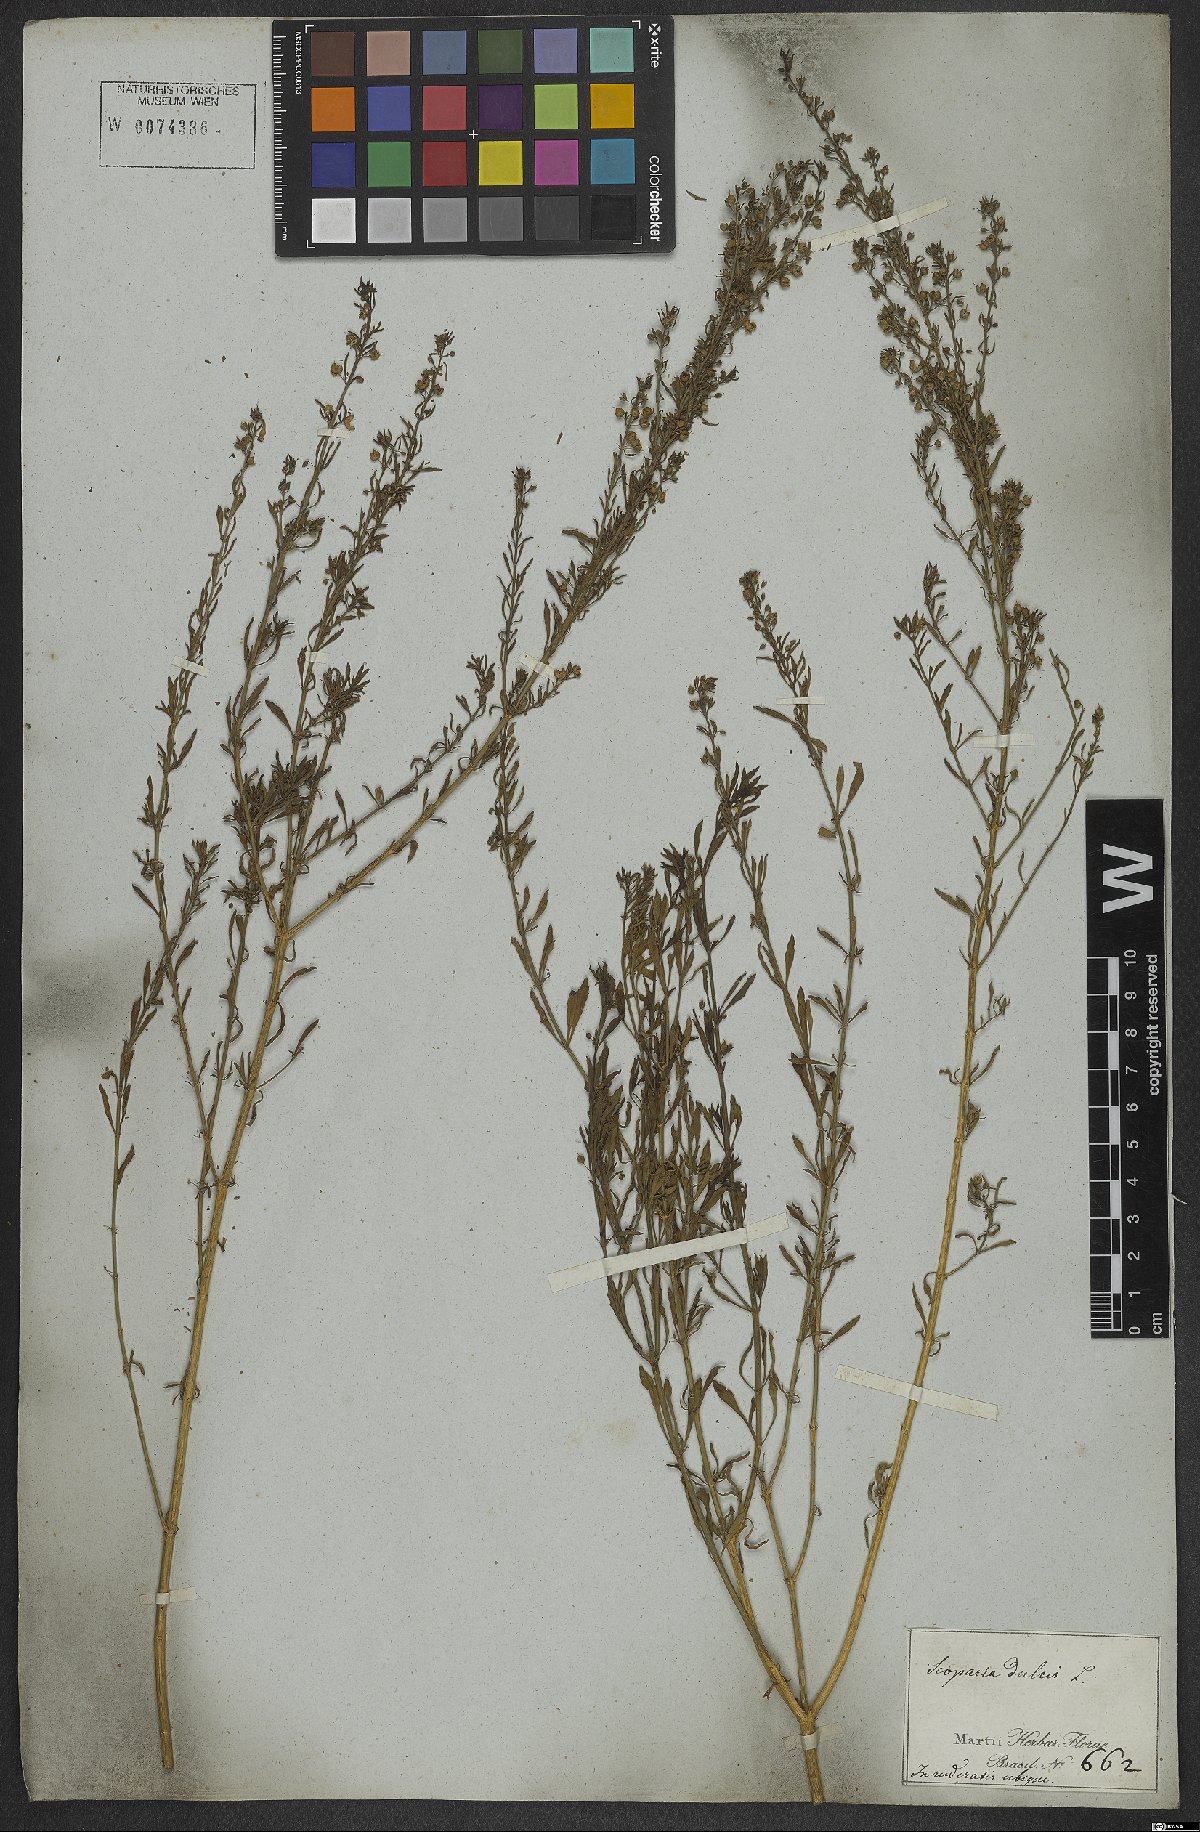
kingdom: Plantae
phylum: Tracheophyta
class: Magnoliopsida
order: Lamiales
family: Plantaginaceae
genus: Scoparia
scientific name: Scoparia dulcis
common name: Scoparia-weed
